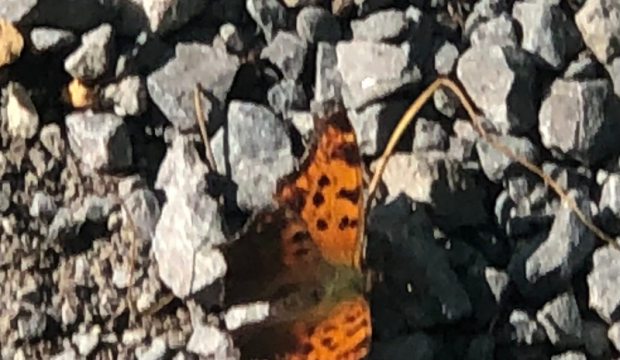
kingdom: Animalia
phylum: Arthropoda
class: Insecta
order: Lepidoptera
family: Nymphalidae
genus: Polygonia
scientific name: Polygonia comma
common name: Eastern Comma
